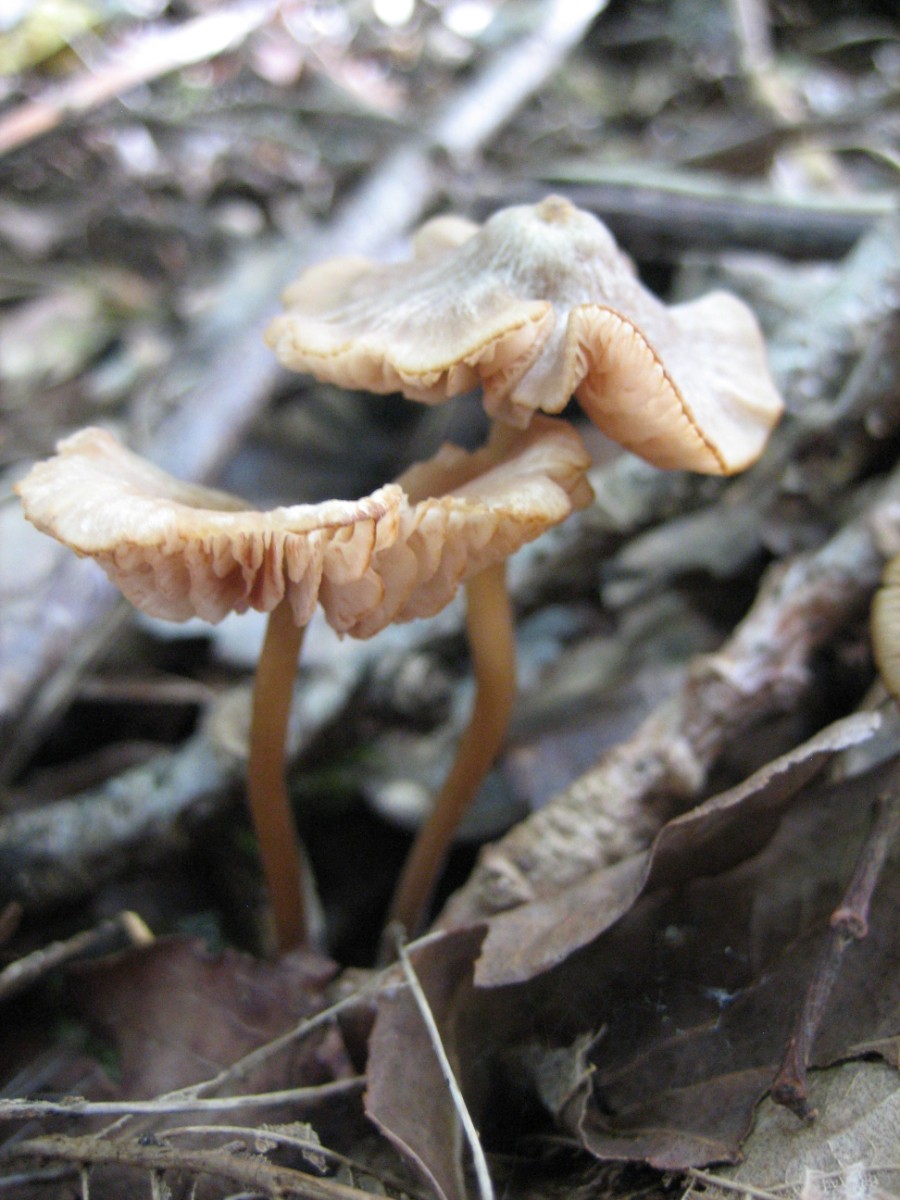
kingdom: Fungi
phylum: Basidiomycota
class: Agaricomycetes
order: Agaricales
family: Entolomataceae
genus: Entoloma
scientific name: Entoloma
